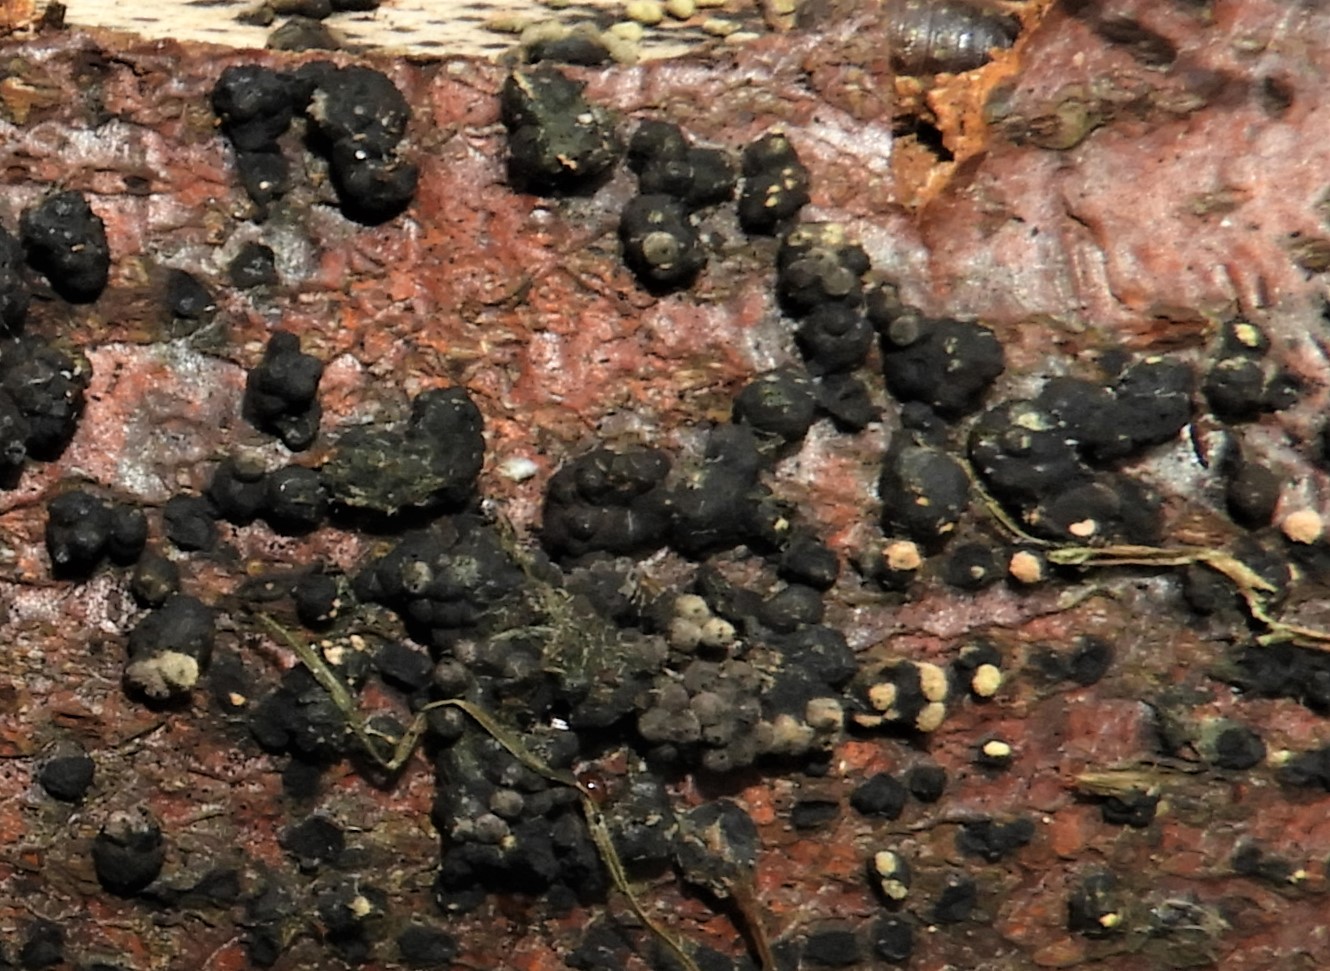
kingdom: Fungi
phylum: Ascomycota
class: Sordariomycetes
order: Xylariales
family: Hypoxylaceae
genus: Jackrogersella
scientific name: Jackrogersella cohaerens
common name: sammenflydende kulbær
